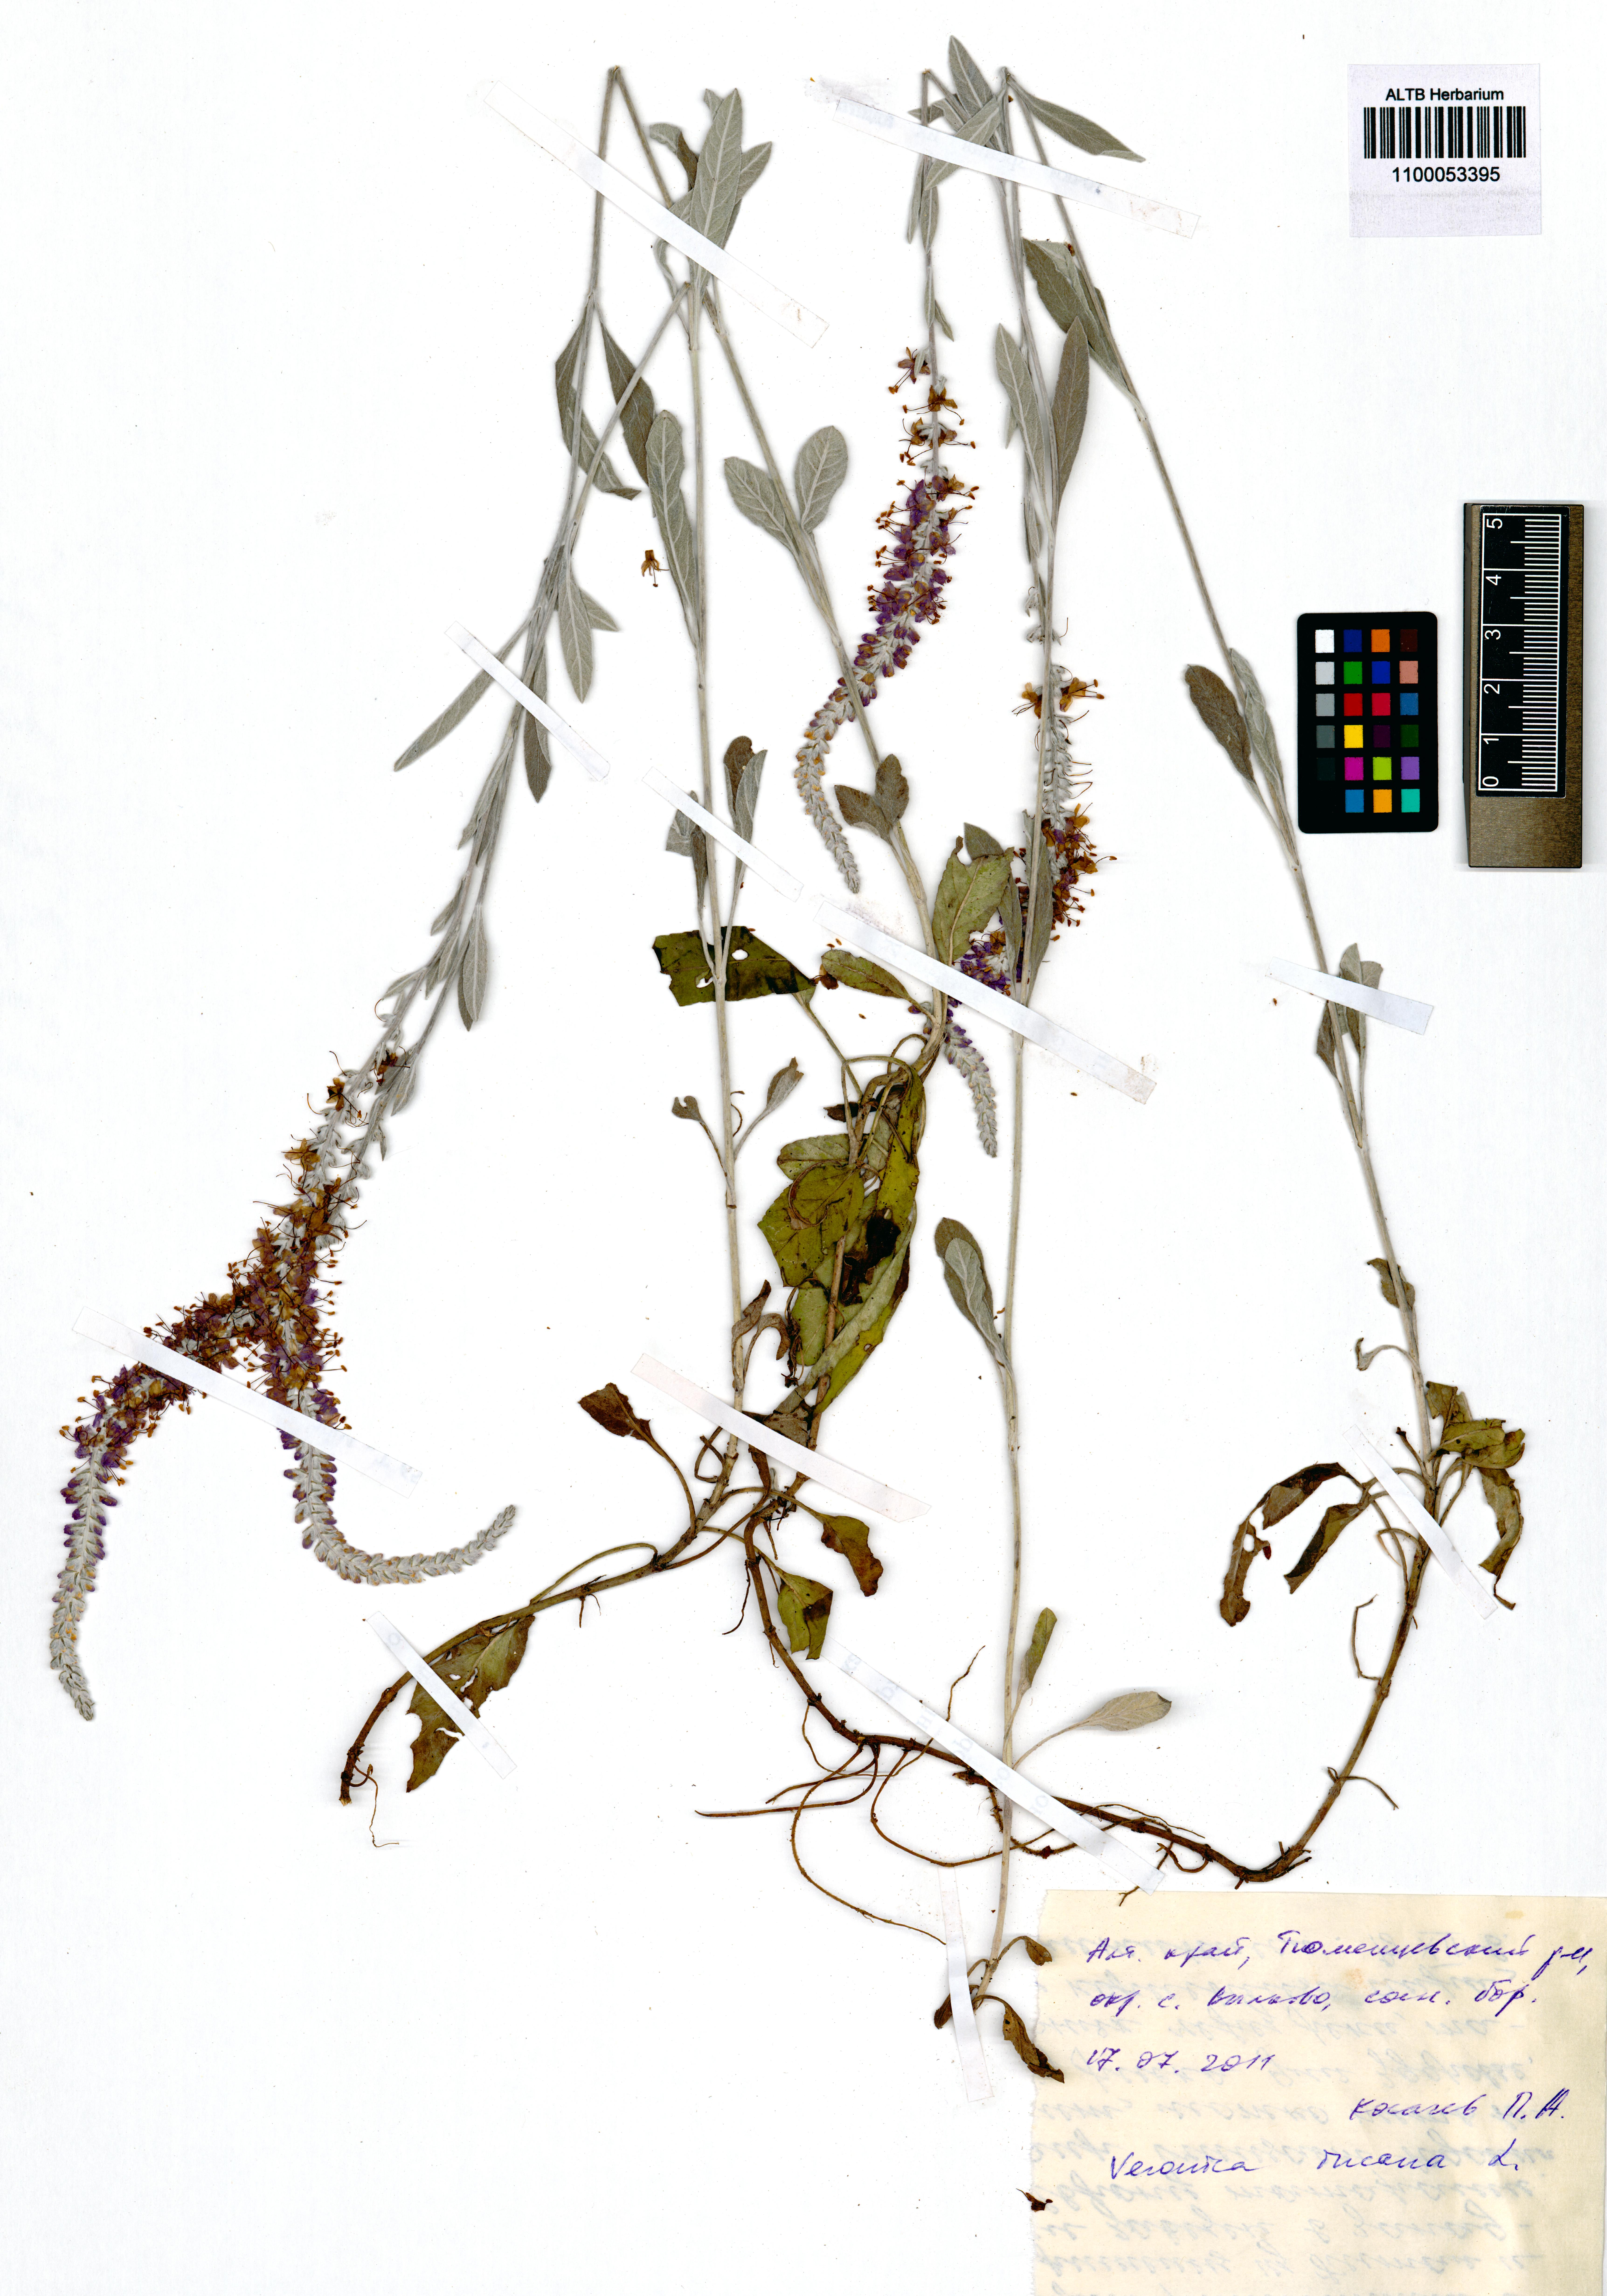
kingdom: Plantae
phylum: Tracheophyta
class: Magnoliopsida
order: Lamiales
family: Plantaginaceae
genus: Veronica
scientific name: Veronica incana
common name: Silver speedwell
